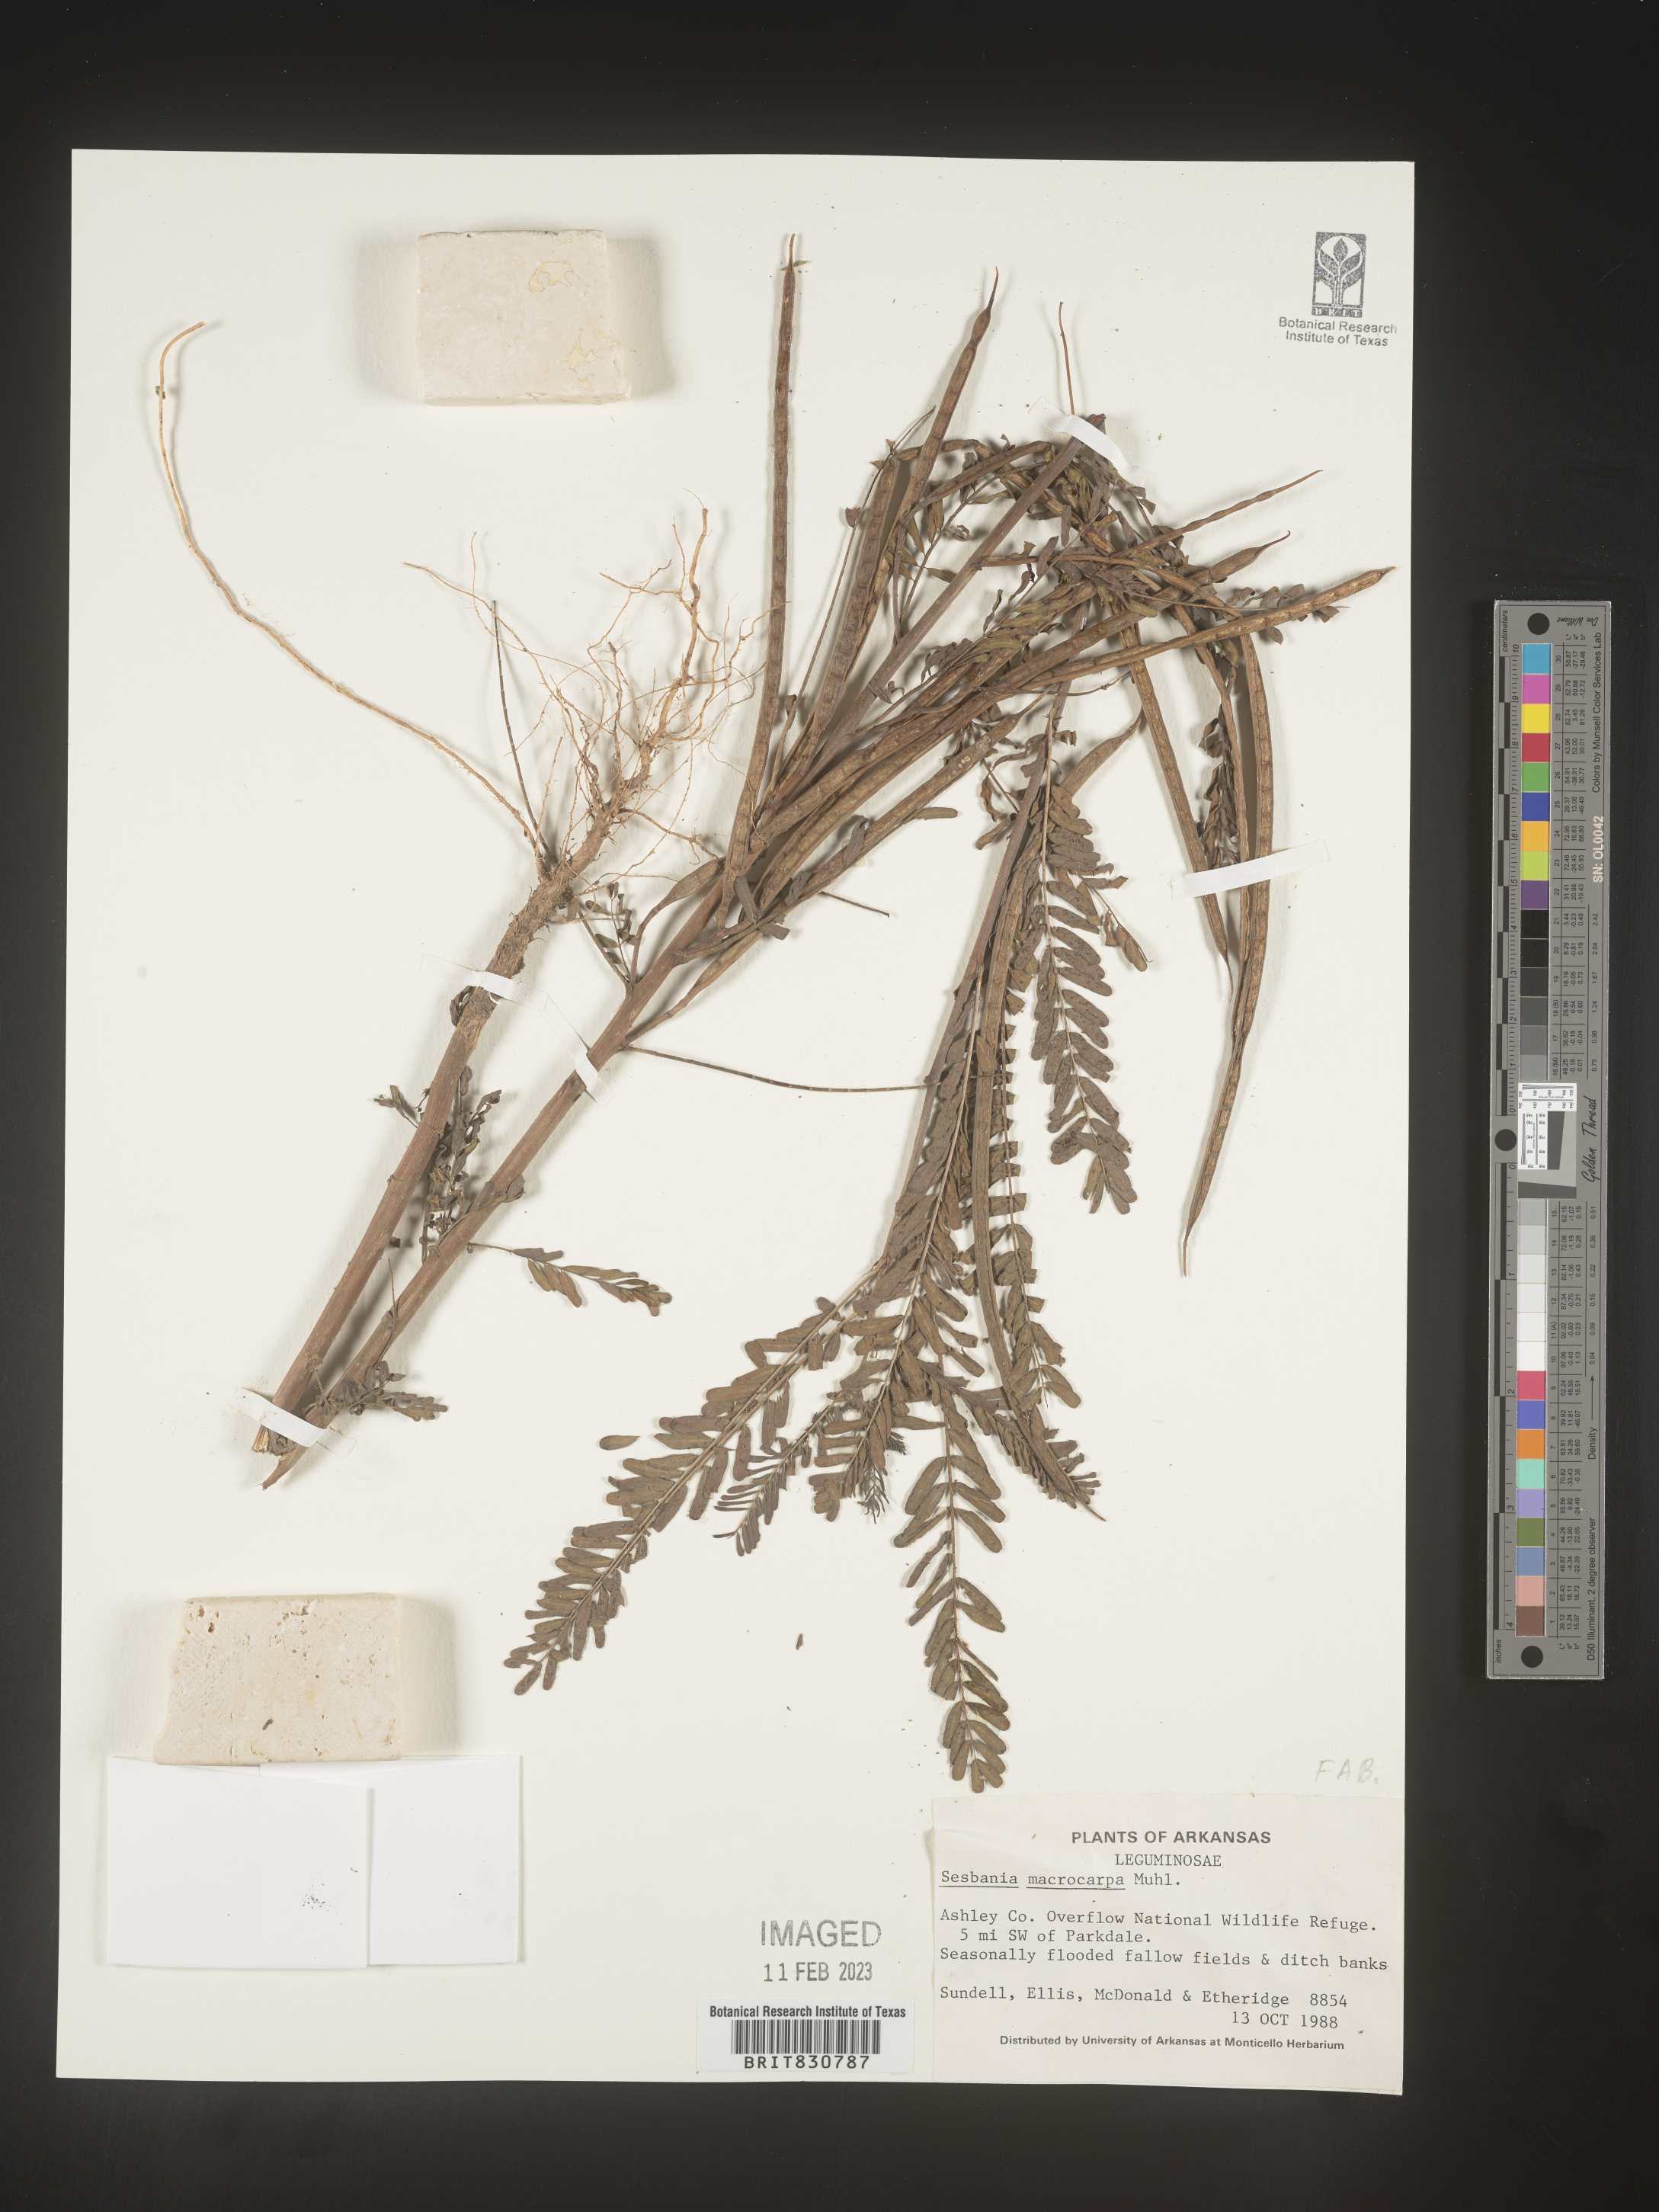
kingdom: Plantae
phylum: Tracheophyta
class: Magnoliopsida
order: Fabales
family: Fabaceae
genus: Sesbania
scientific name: Sesbania vesicaria
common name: Bagpod
